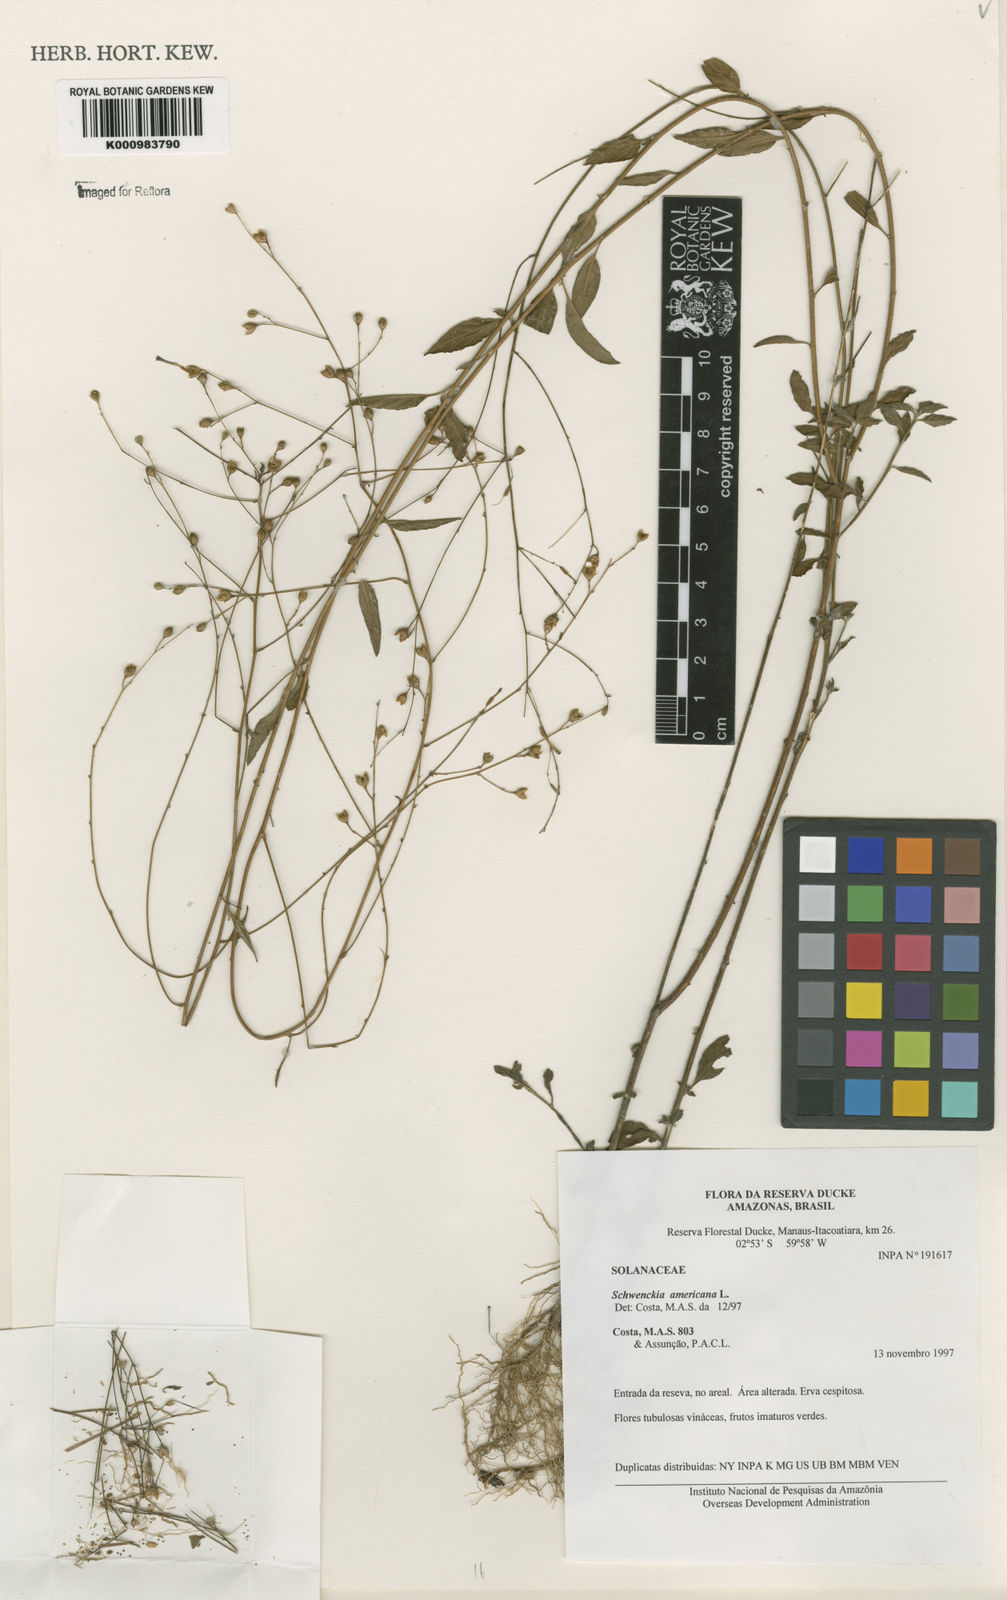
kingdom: Plantae
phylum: Tracheophyta
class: Magnoliopsida
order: Solanales
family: Solanaceae
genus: Schwenckia
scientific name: Schwenckia americana
